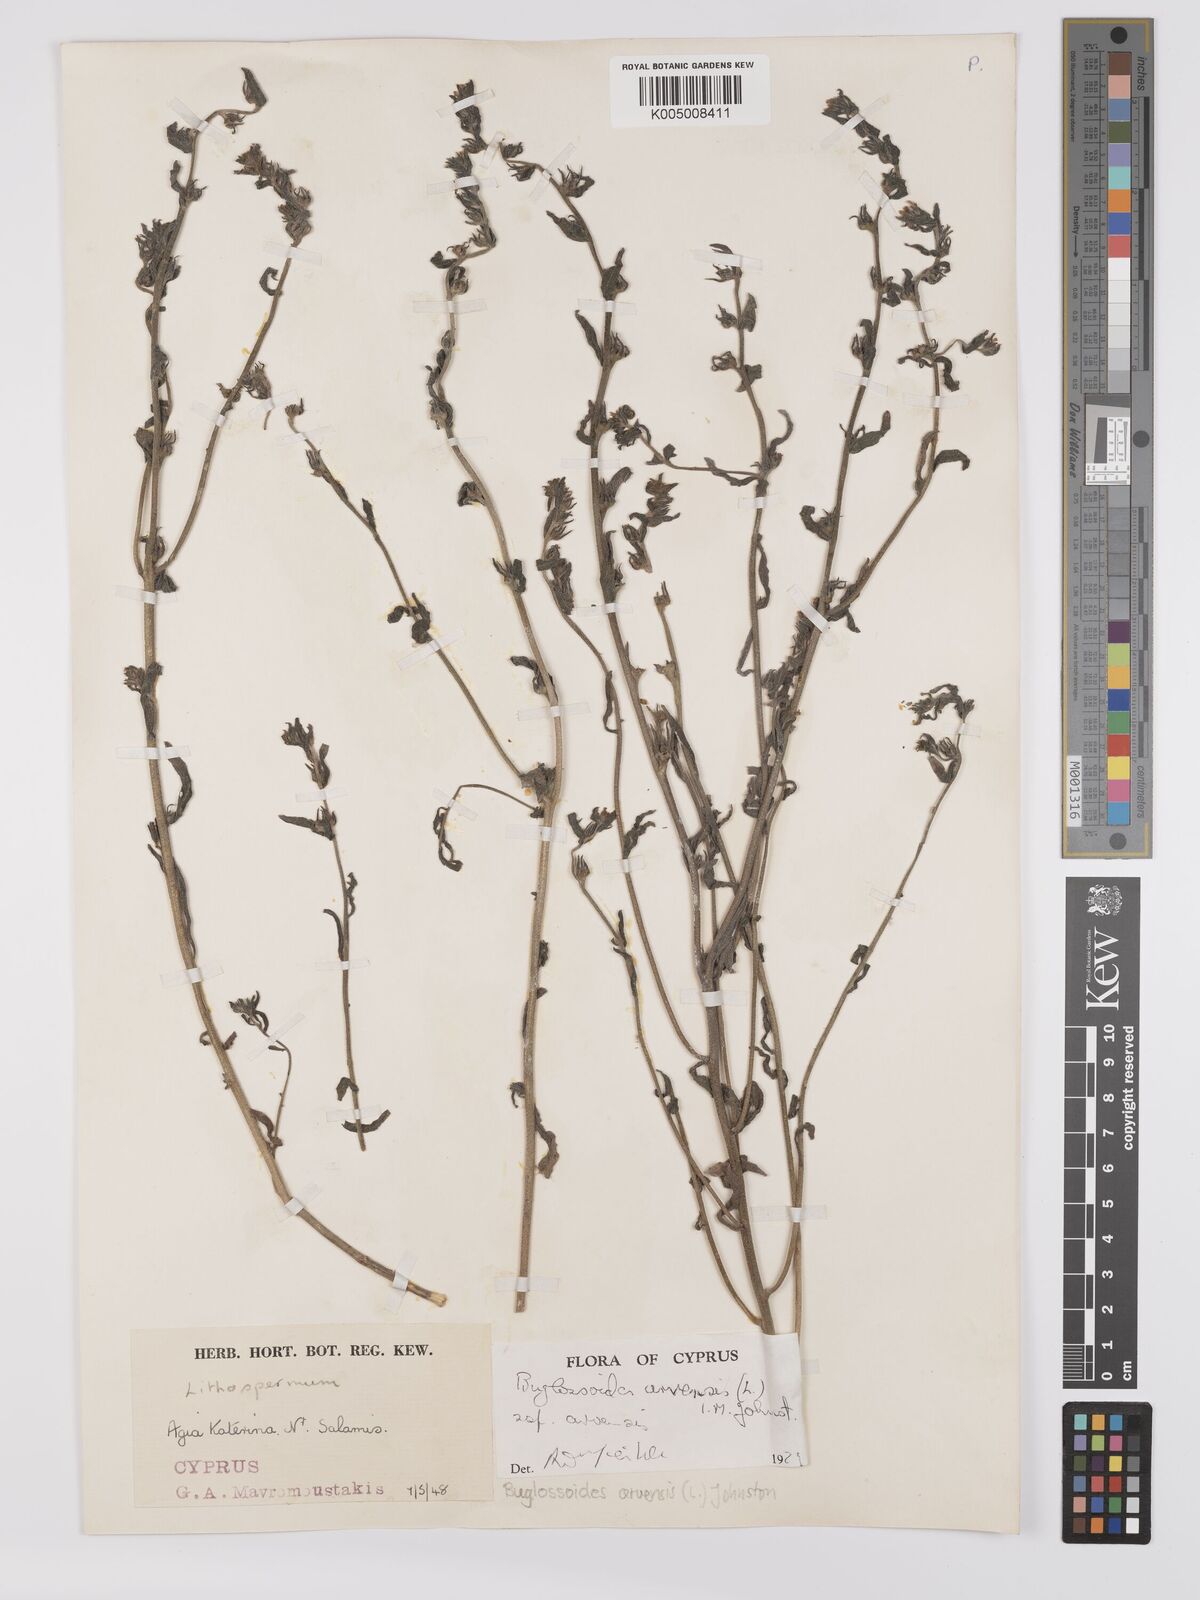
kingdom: Plantae
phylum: Tracheophyta
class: Magnoliopsida
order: Boraginales
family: Boraginaceae
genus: Buglossoides
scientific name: Buglossoides arvensis
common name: Corn gromwell
